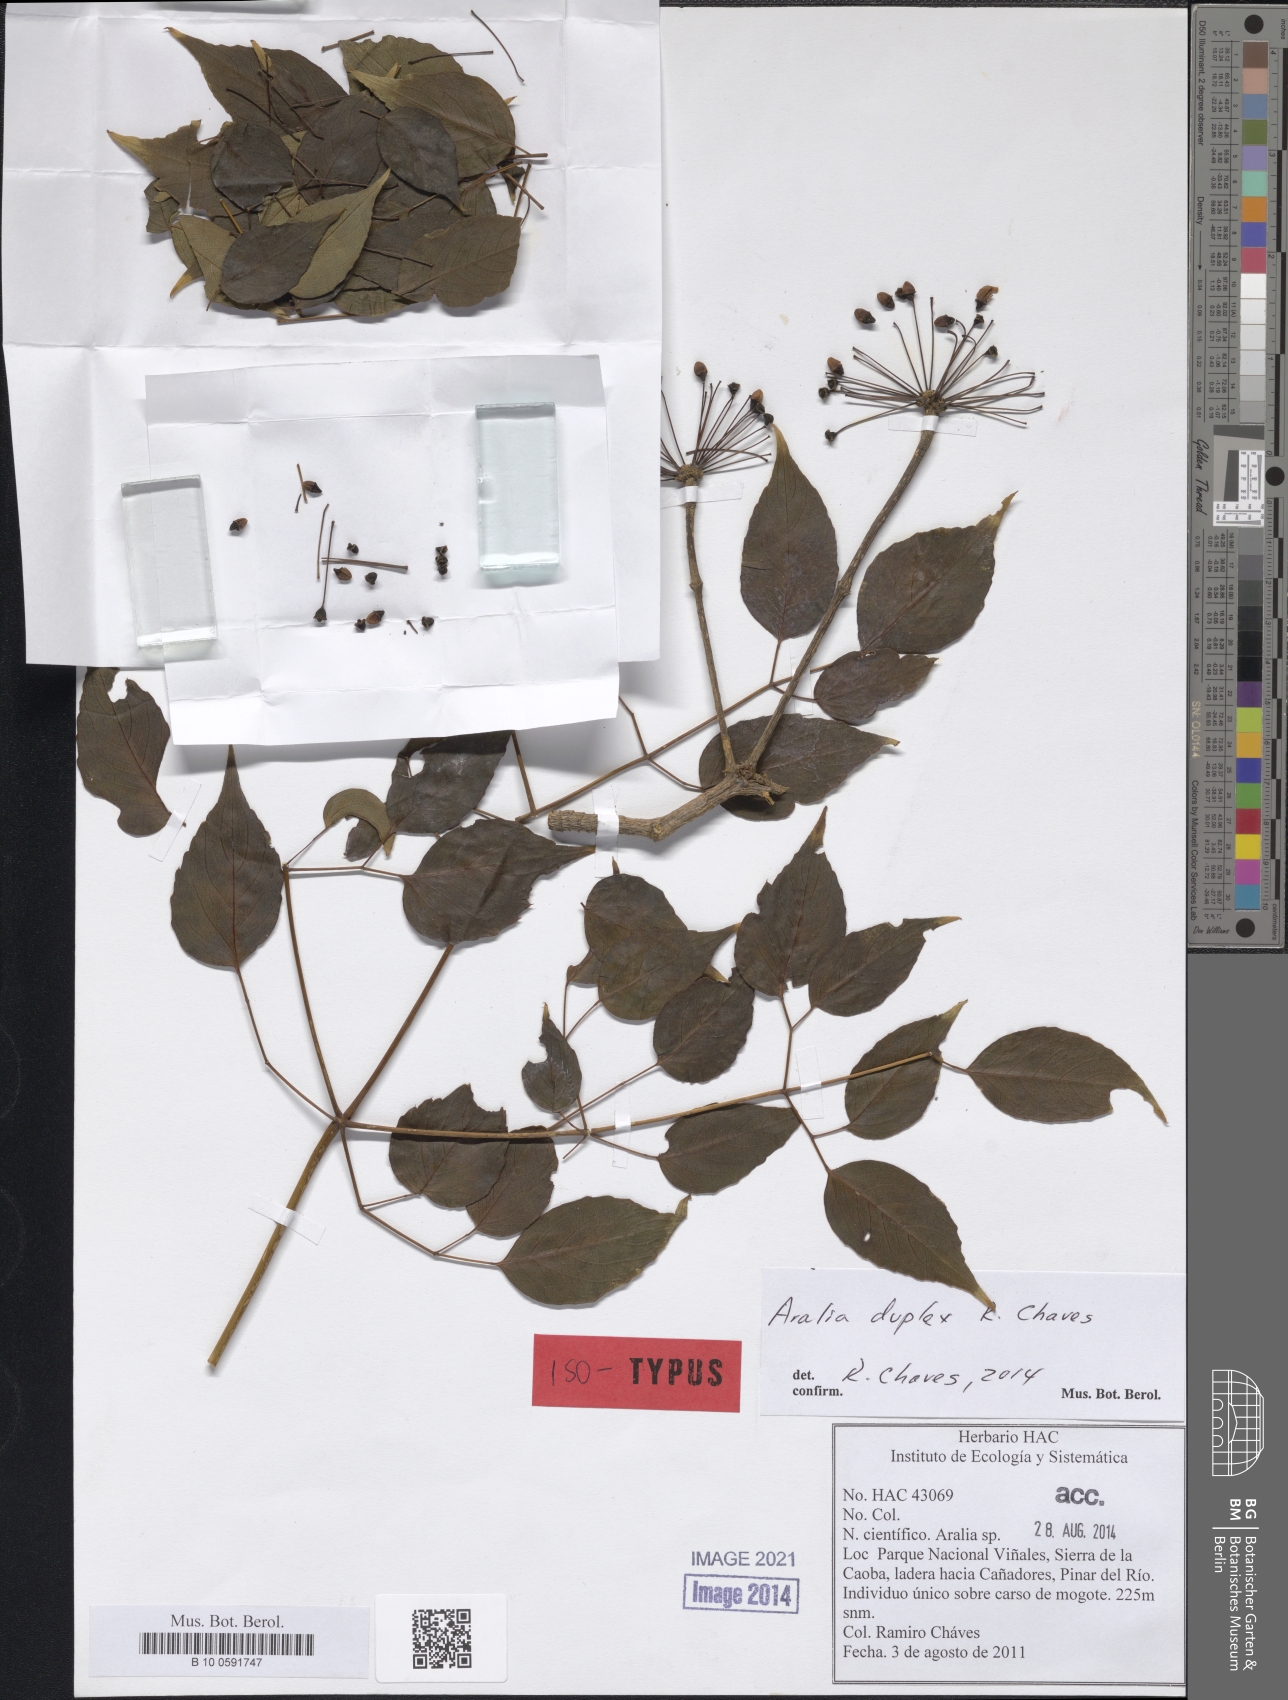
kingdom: Plantae
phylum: Tracheophyta
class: Magnoliopsida
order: Apiales
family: Araliaceae
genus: Aralia
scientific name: Aralia duplex
